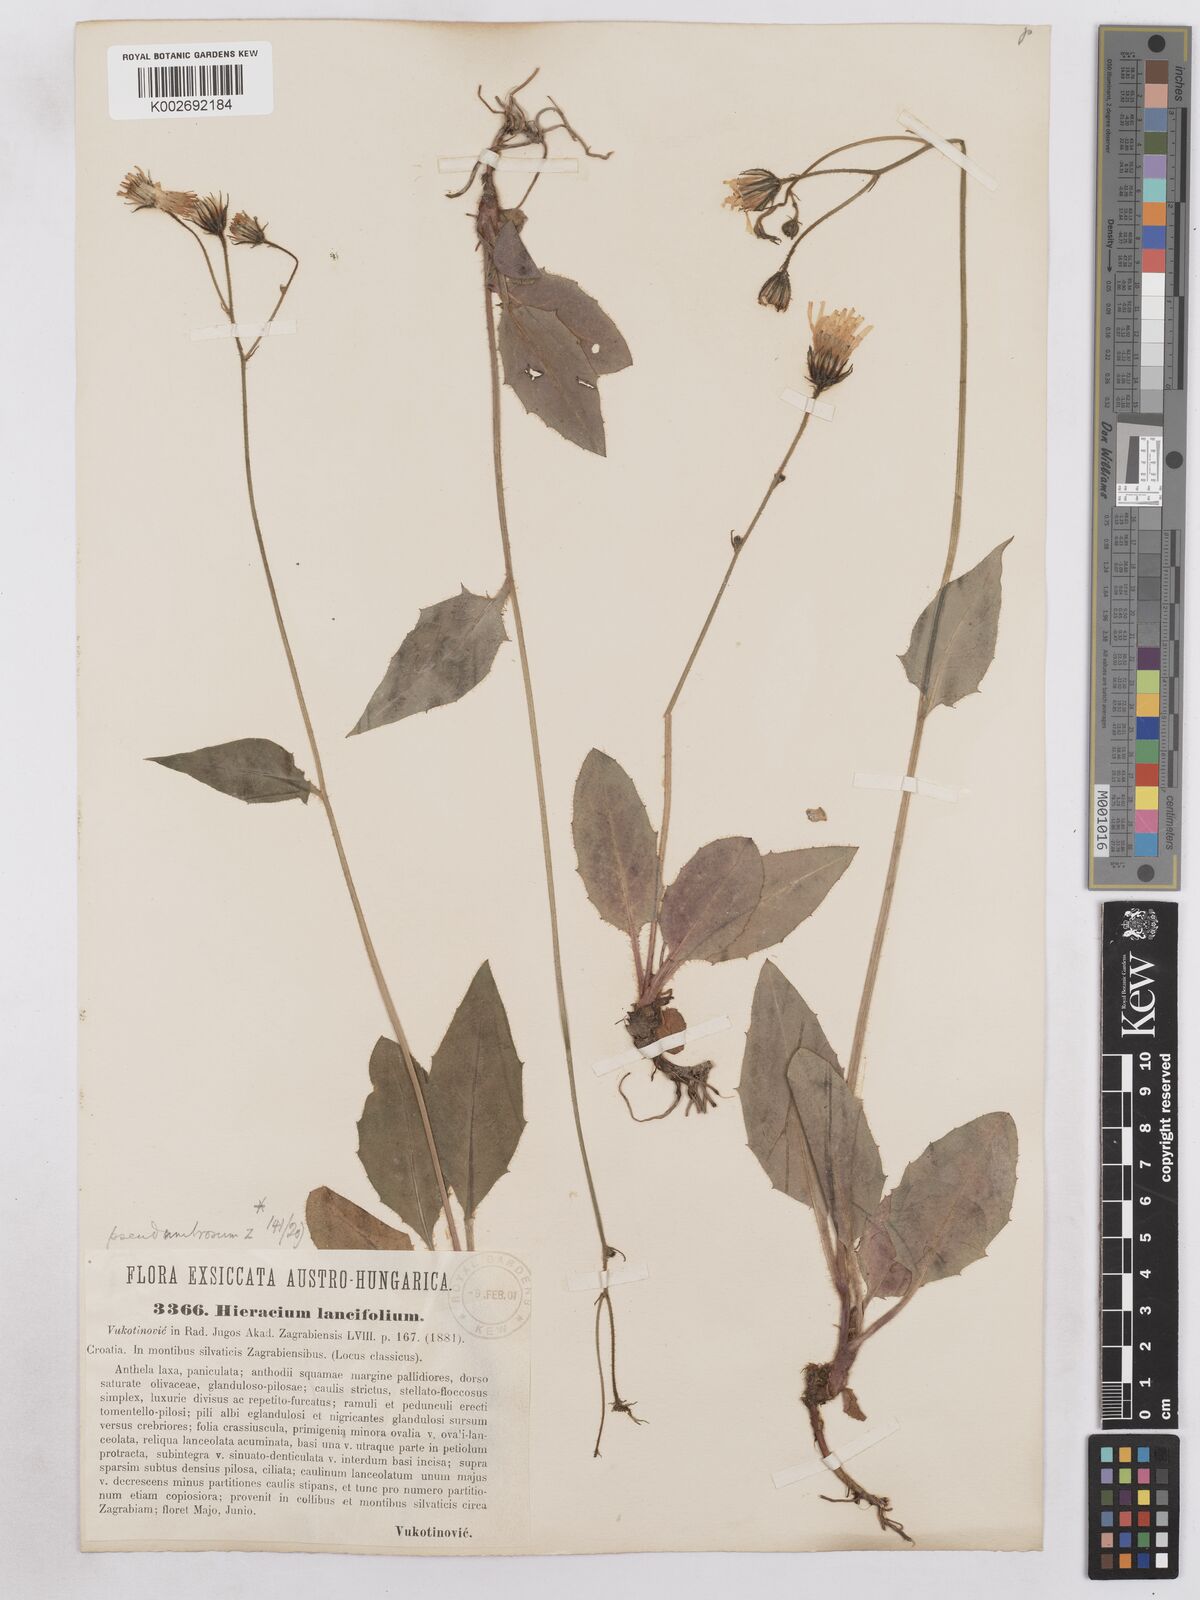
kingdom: Plantae
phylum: Tracheophyta
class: Magnoliopsida
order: Asterales
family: Asteraceae
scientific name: Asteraceae
